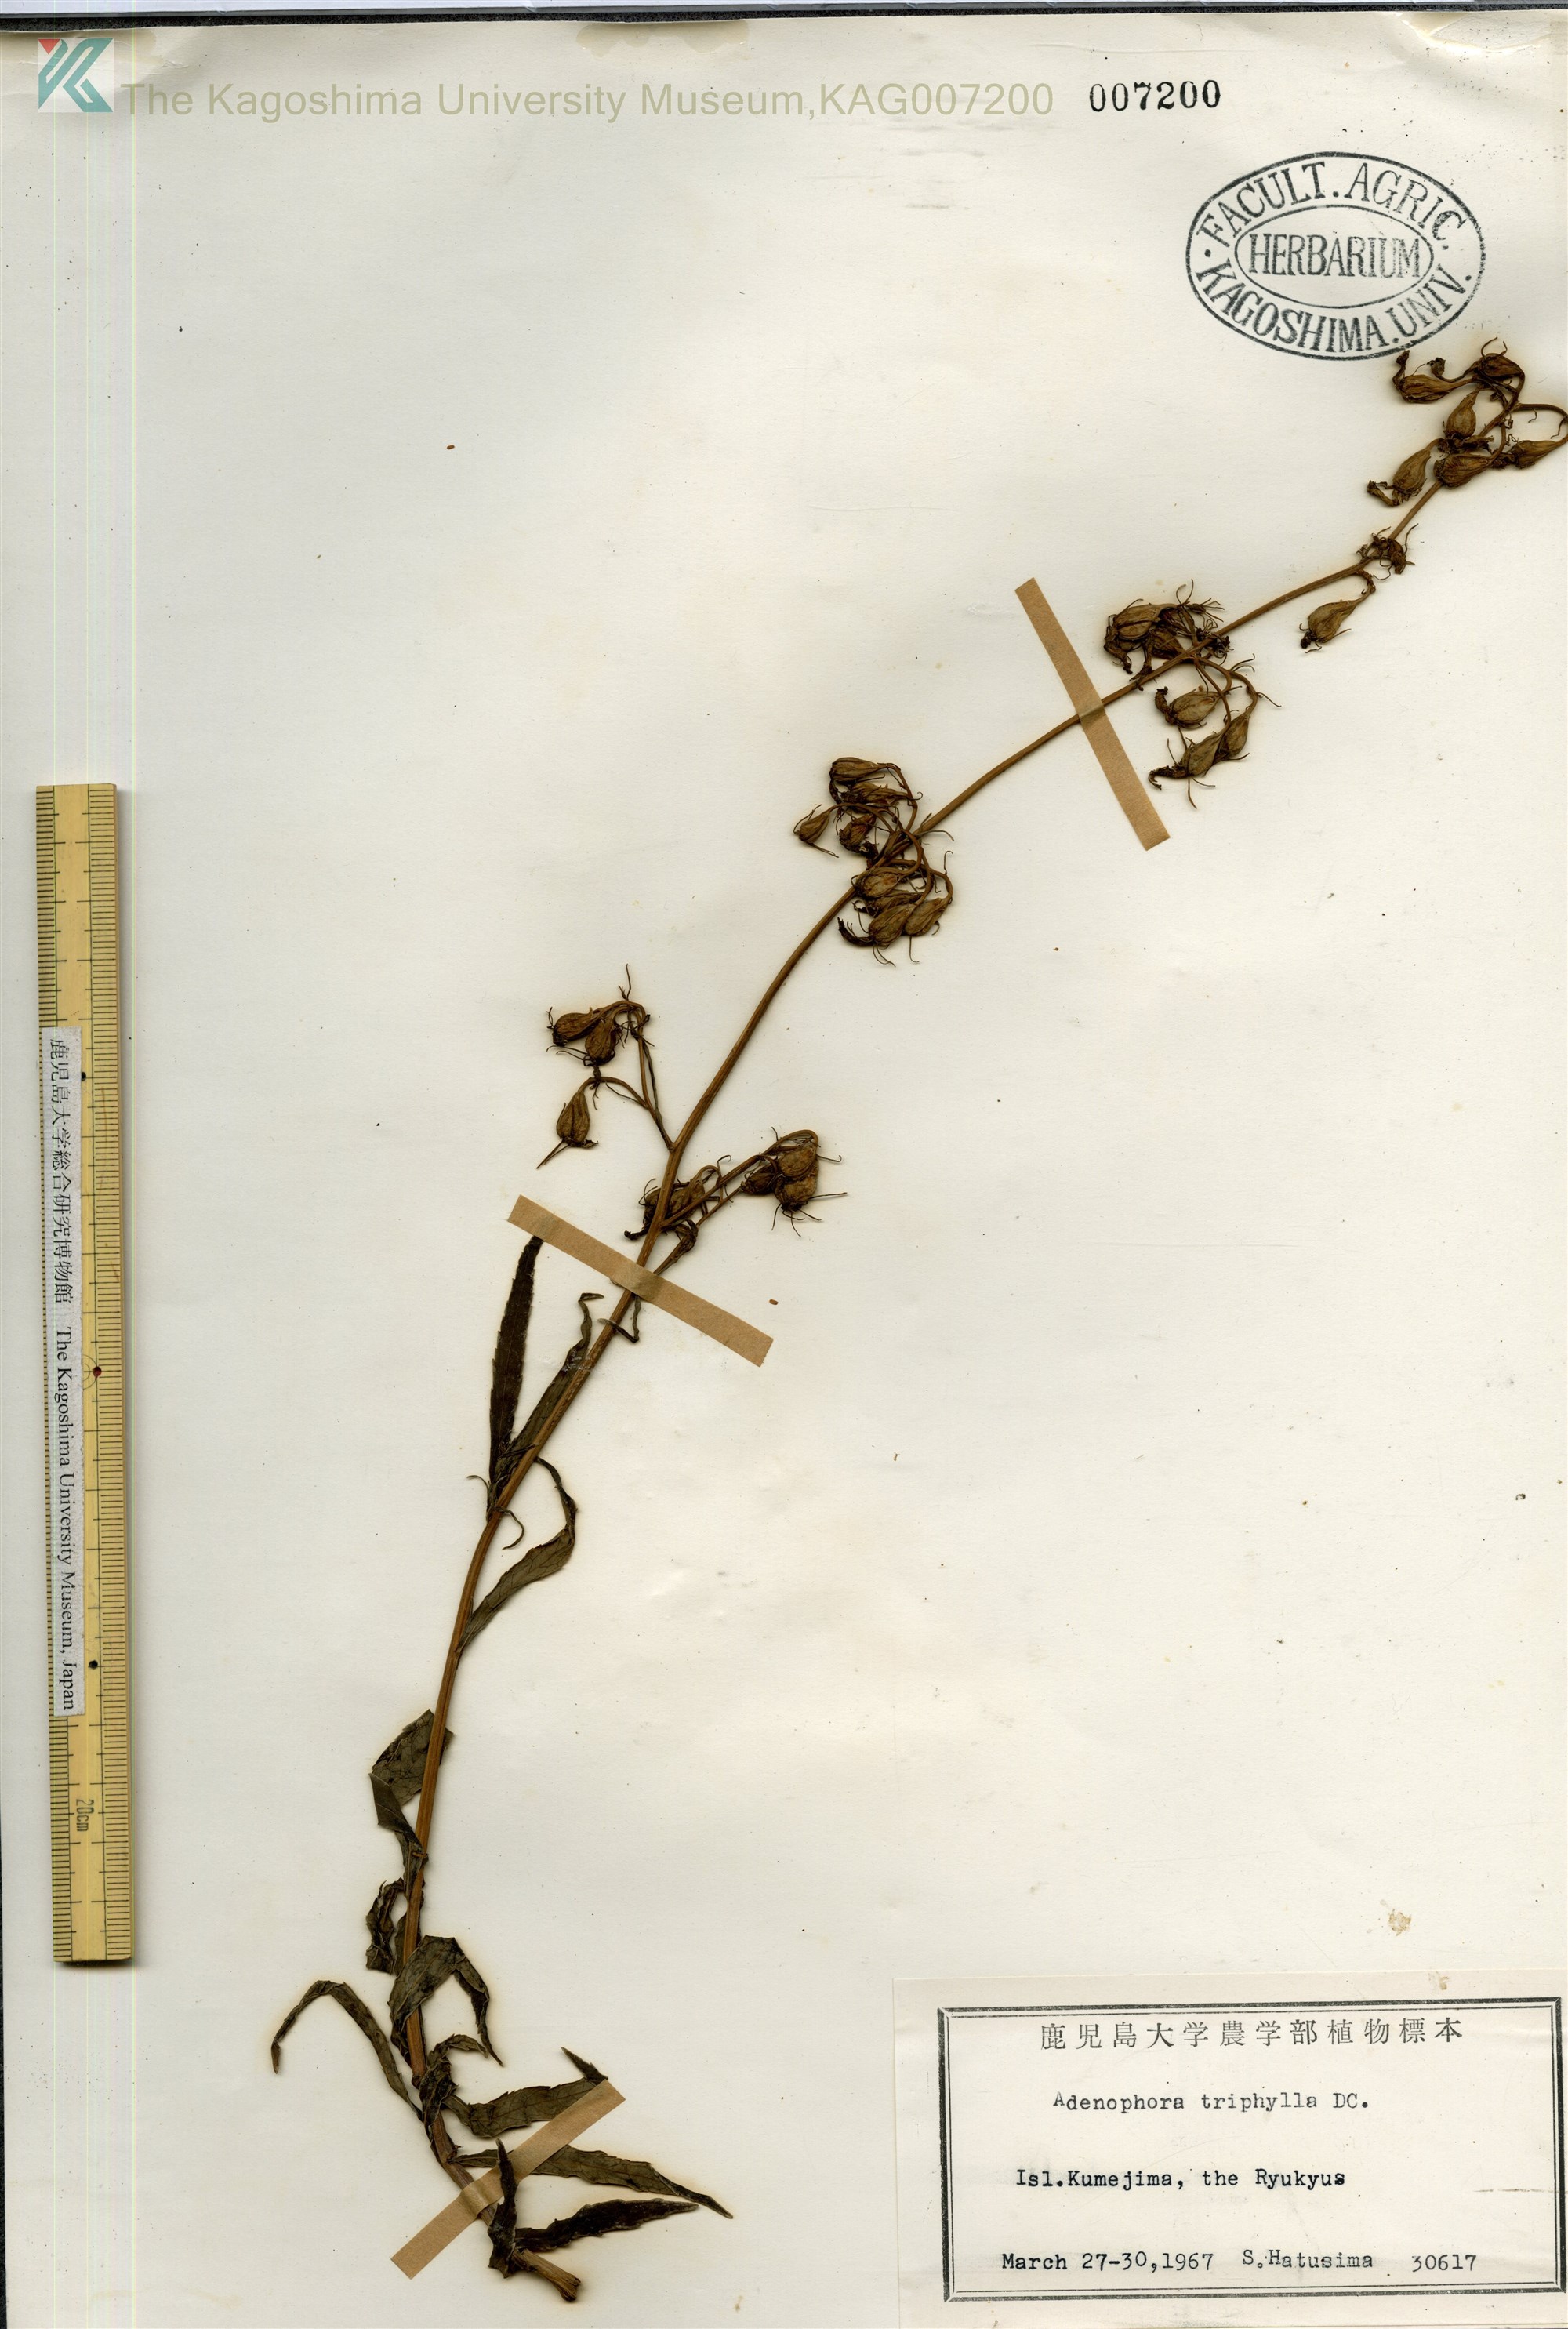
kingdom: Plantae
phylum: Tracheophyta
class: Magnoliopsida
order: Asterales
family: Campanulaceae
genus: Adenophora
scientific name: Adenophora triphylla
